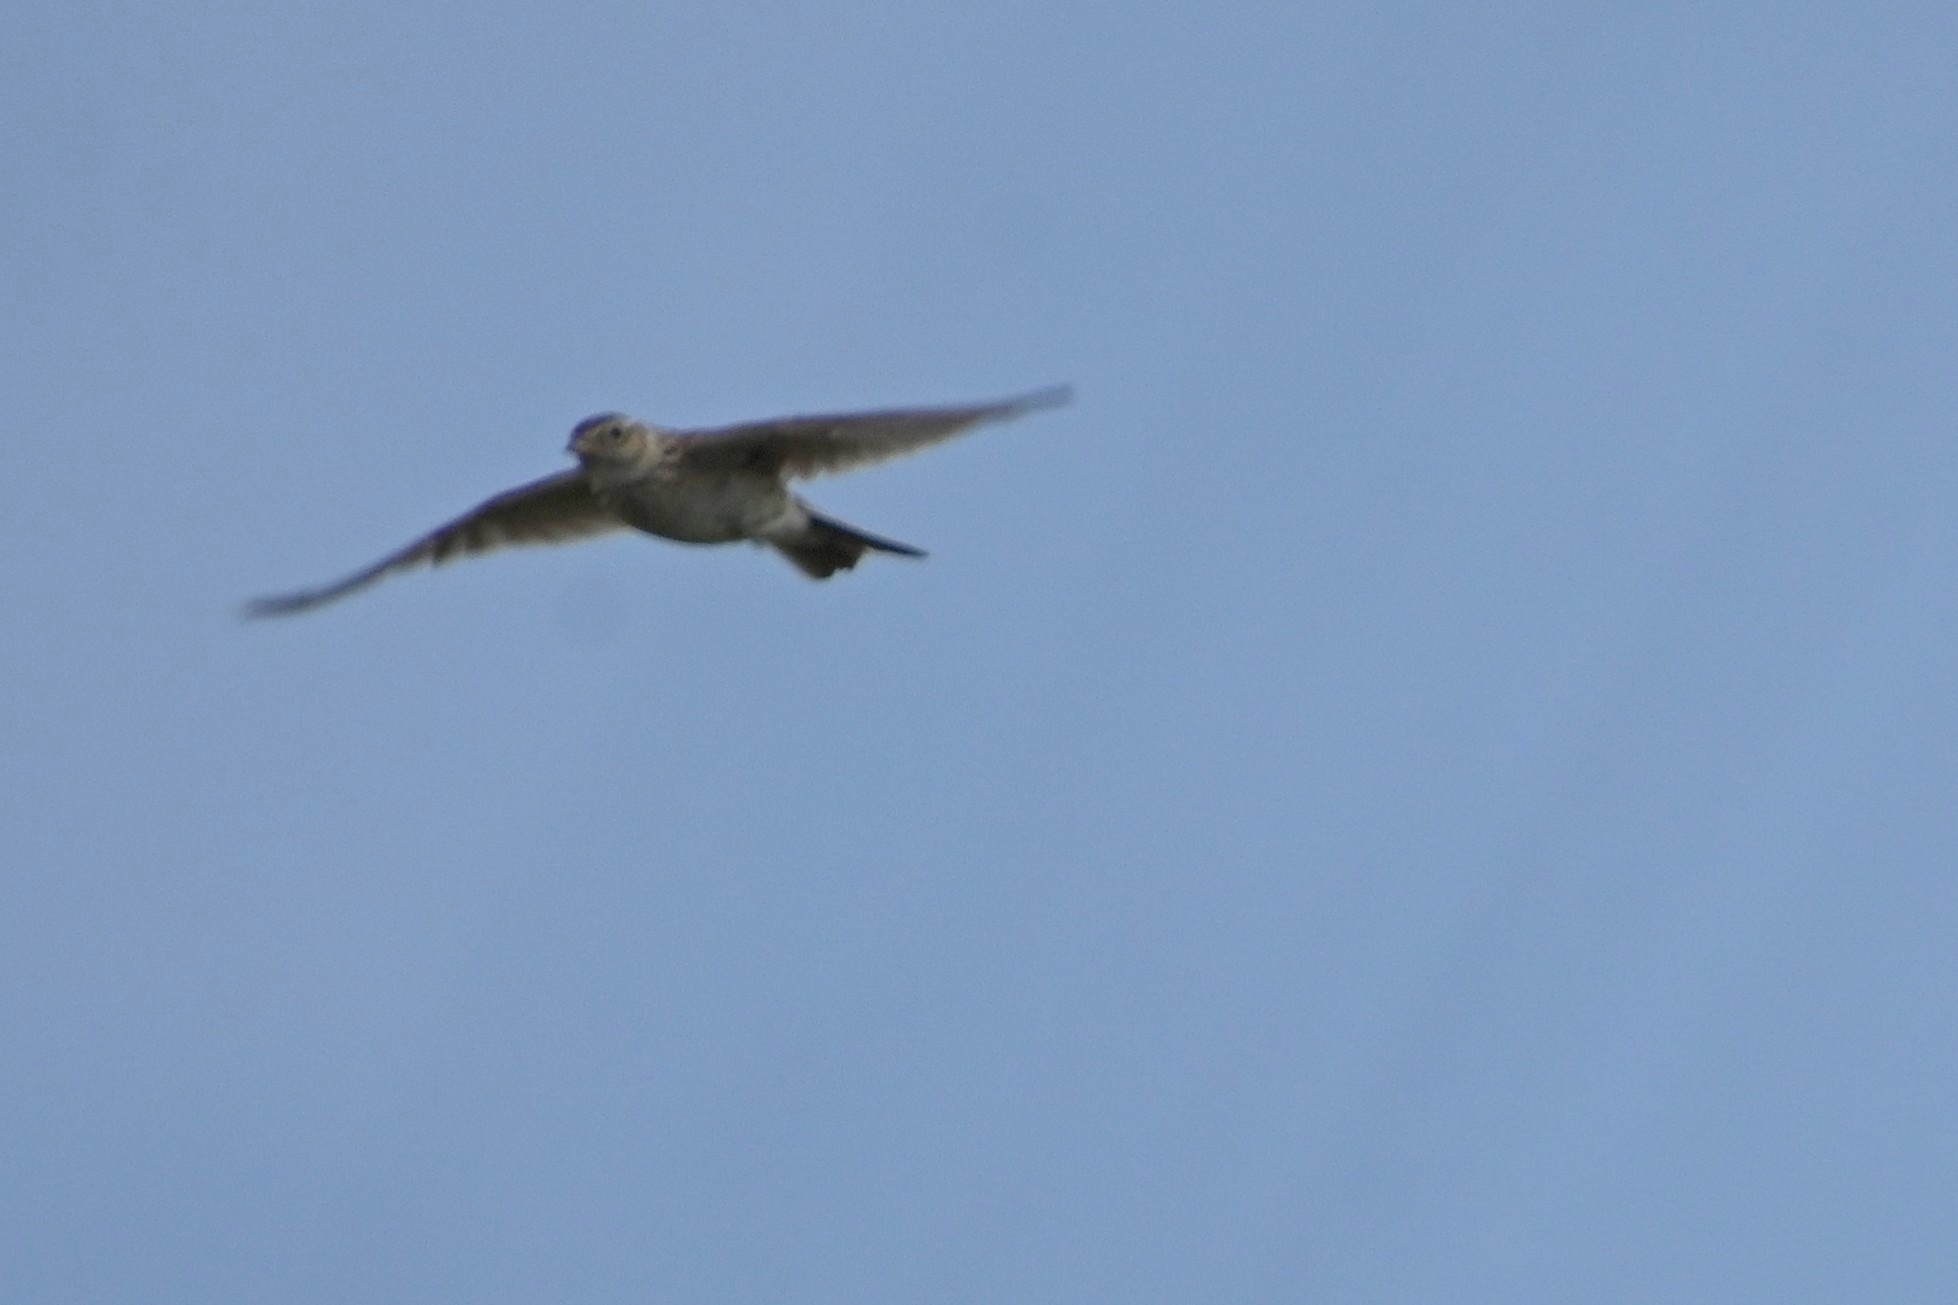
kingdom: Animalia
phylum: Chordata
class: Aves
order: Passeriformes
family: Alaudidae
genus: Alauda
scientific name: Alauda arvensis
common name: Sanglærke
